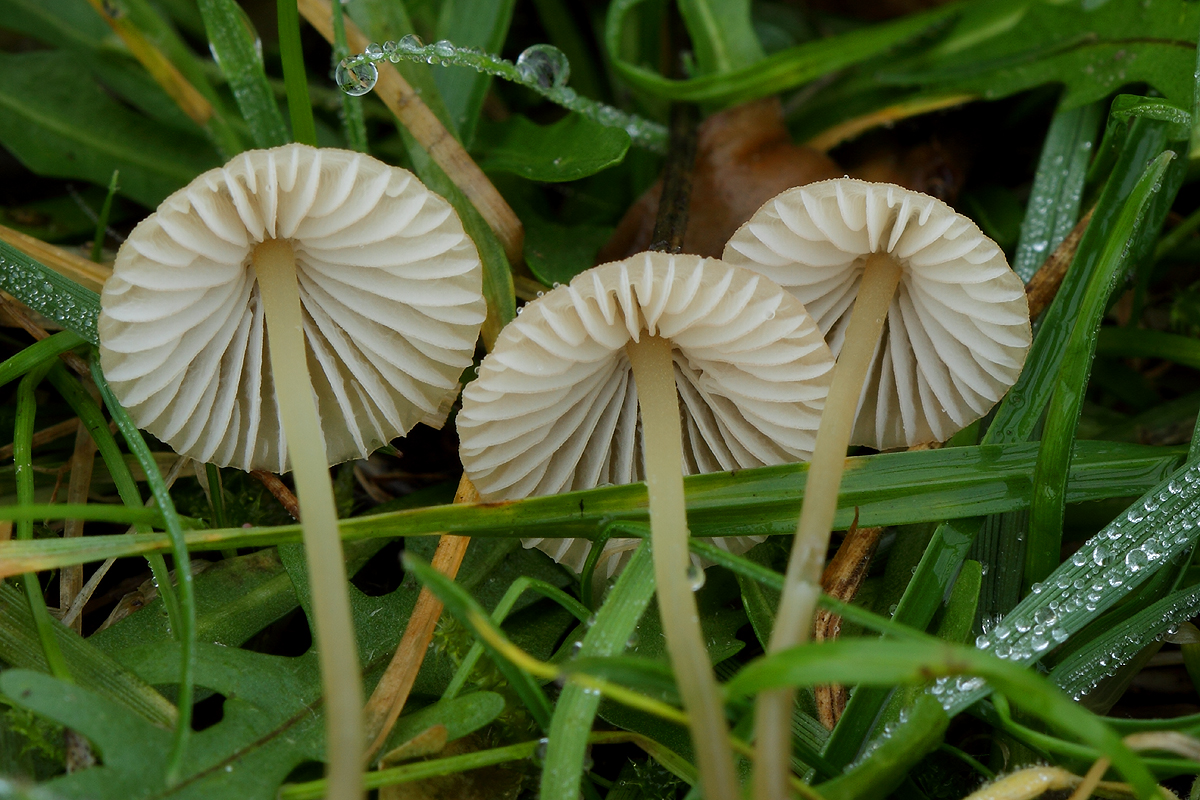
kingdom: Fungi
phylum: Basidiomycota
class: Agaricomycetes
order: Agaricales
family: Mycenaceae
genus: Mycena
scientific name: Mycena olivaceomarginata
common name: brunægget huesvamp
